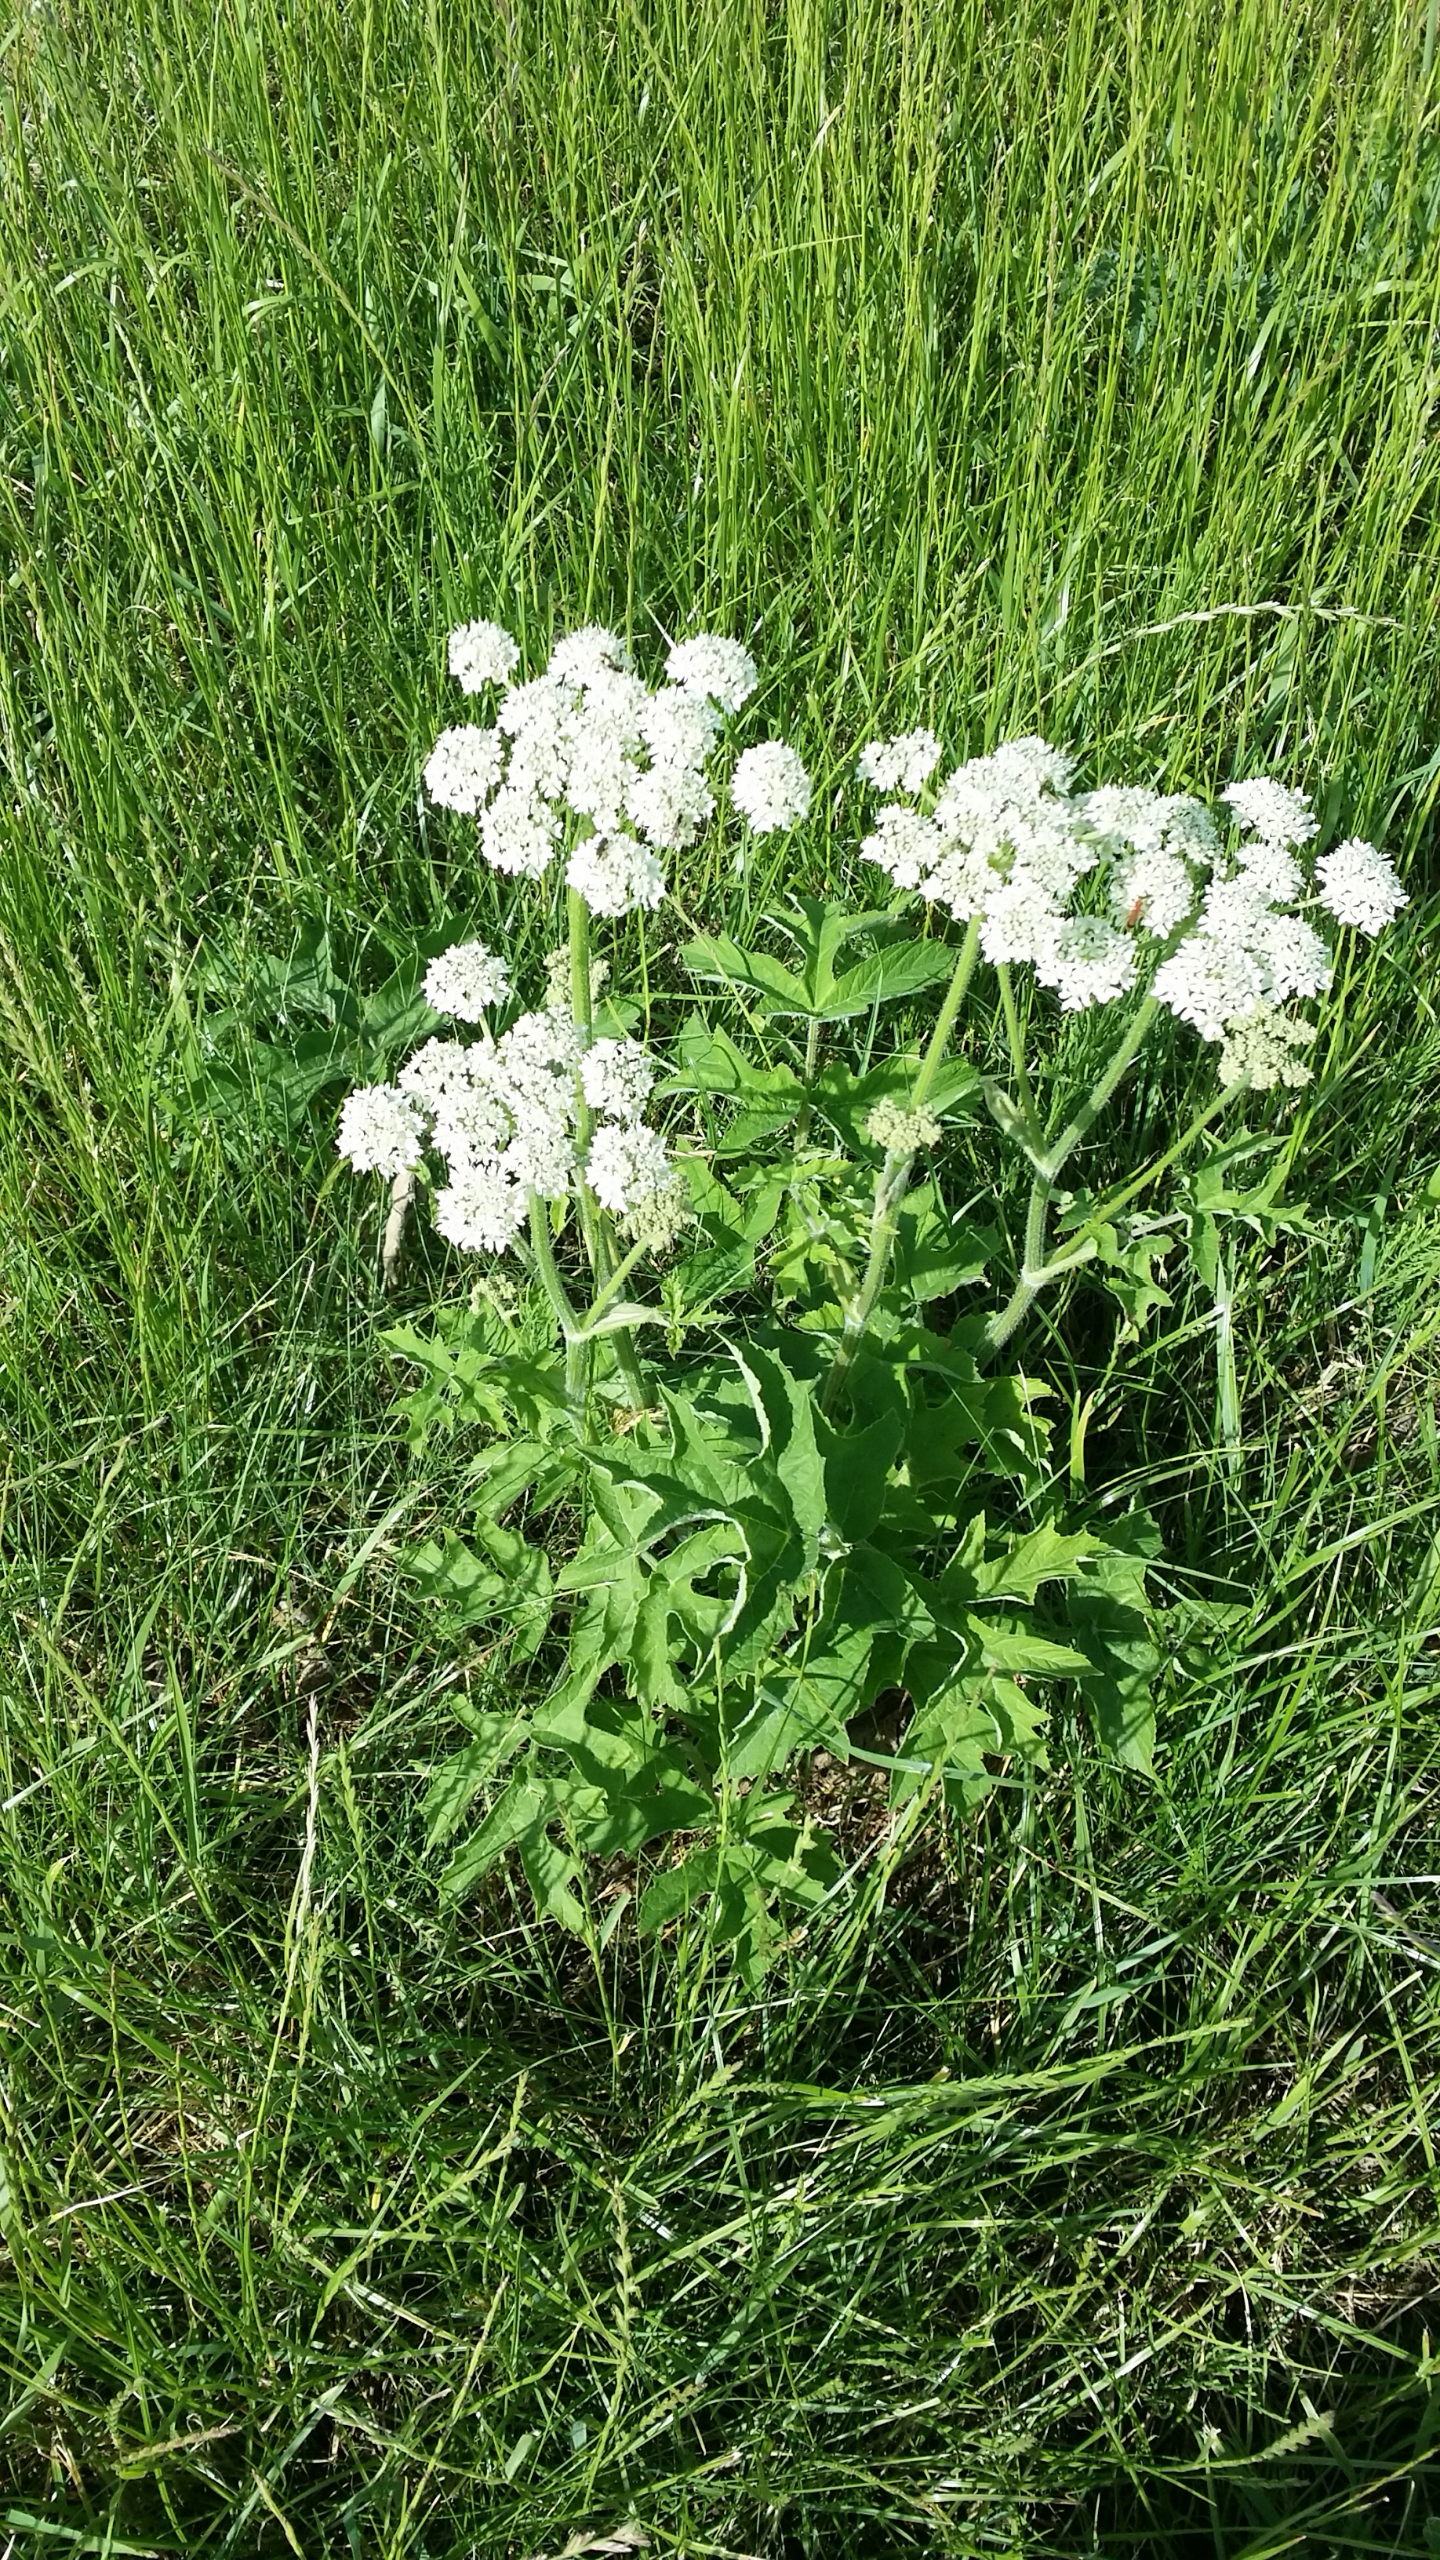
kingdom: Plantae
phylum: Tracheophyta
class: Magnoliopsida
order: Apiales
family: Apiaceae
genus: Heracleum
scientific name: Heracleum mantegazzianum
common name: Kæmpe-bjørneklo
